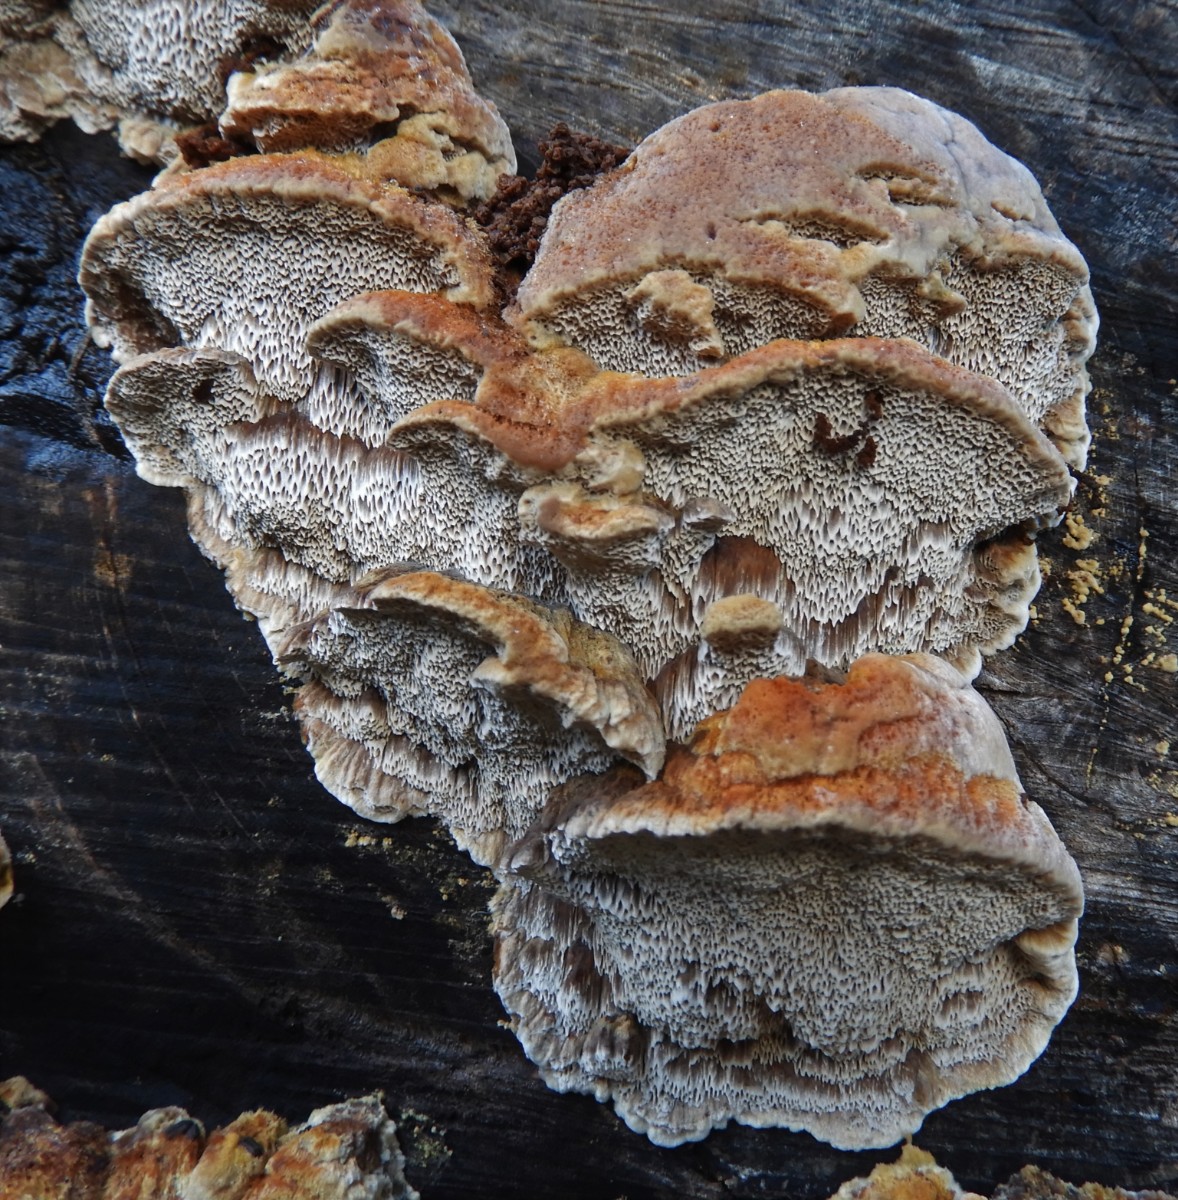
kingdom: Fungi
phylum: Basidiomycota
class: Agaricomycetes
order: Hymenochaetales
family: Hymenochaetaceae
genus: Mensularia
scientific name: Mensularia nodulosa
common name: bøge-spejlporesvamp
